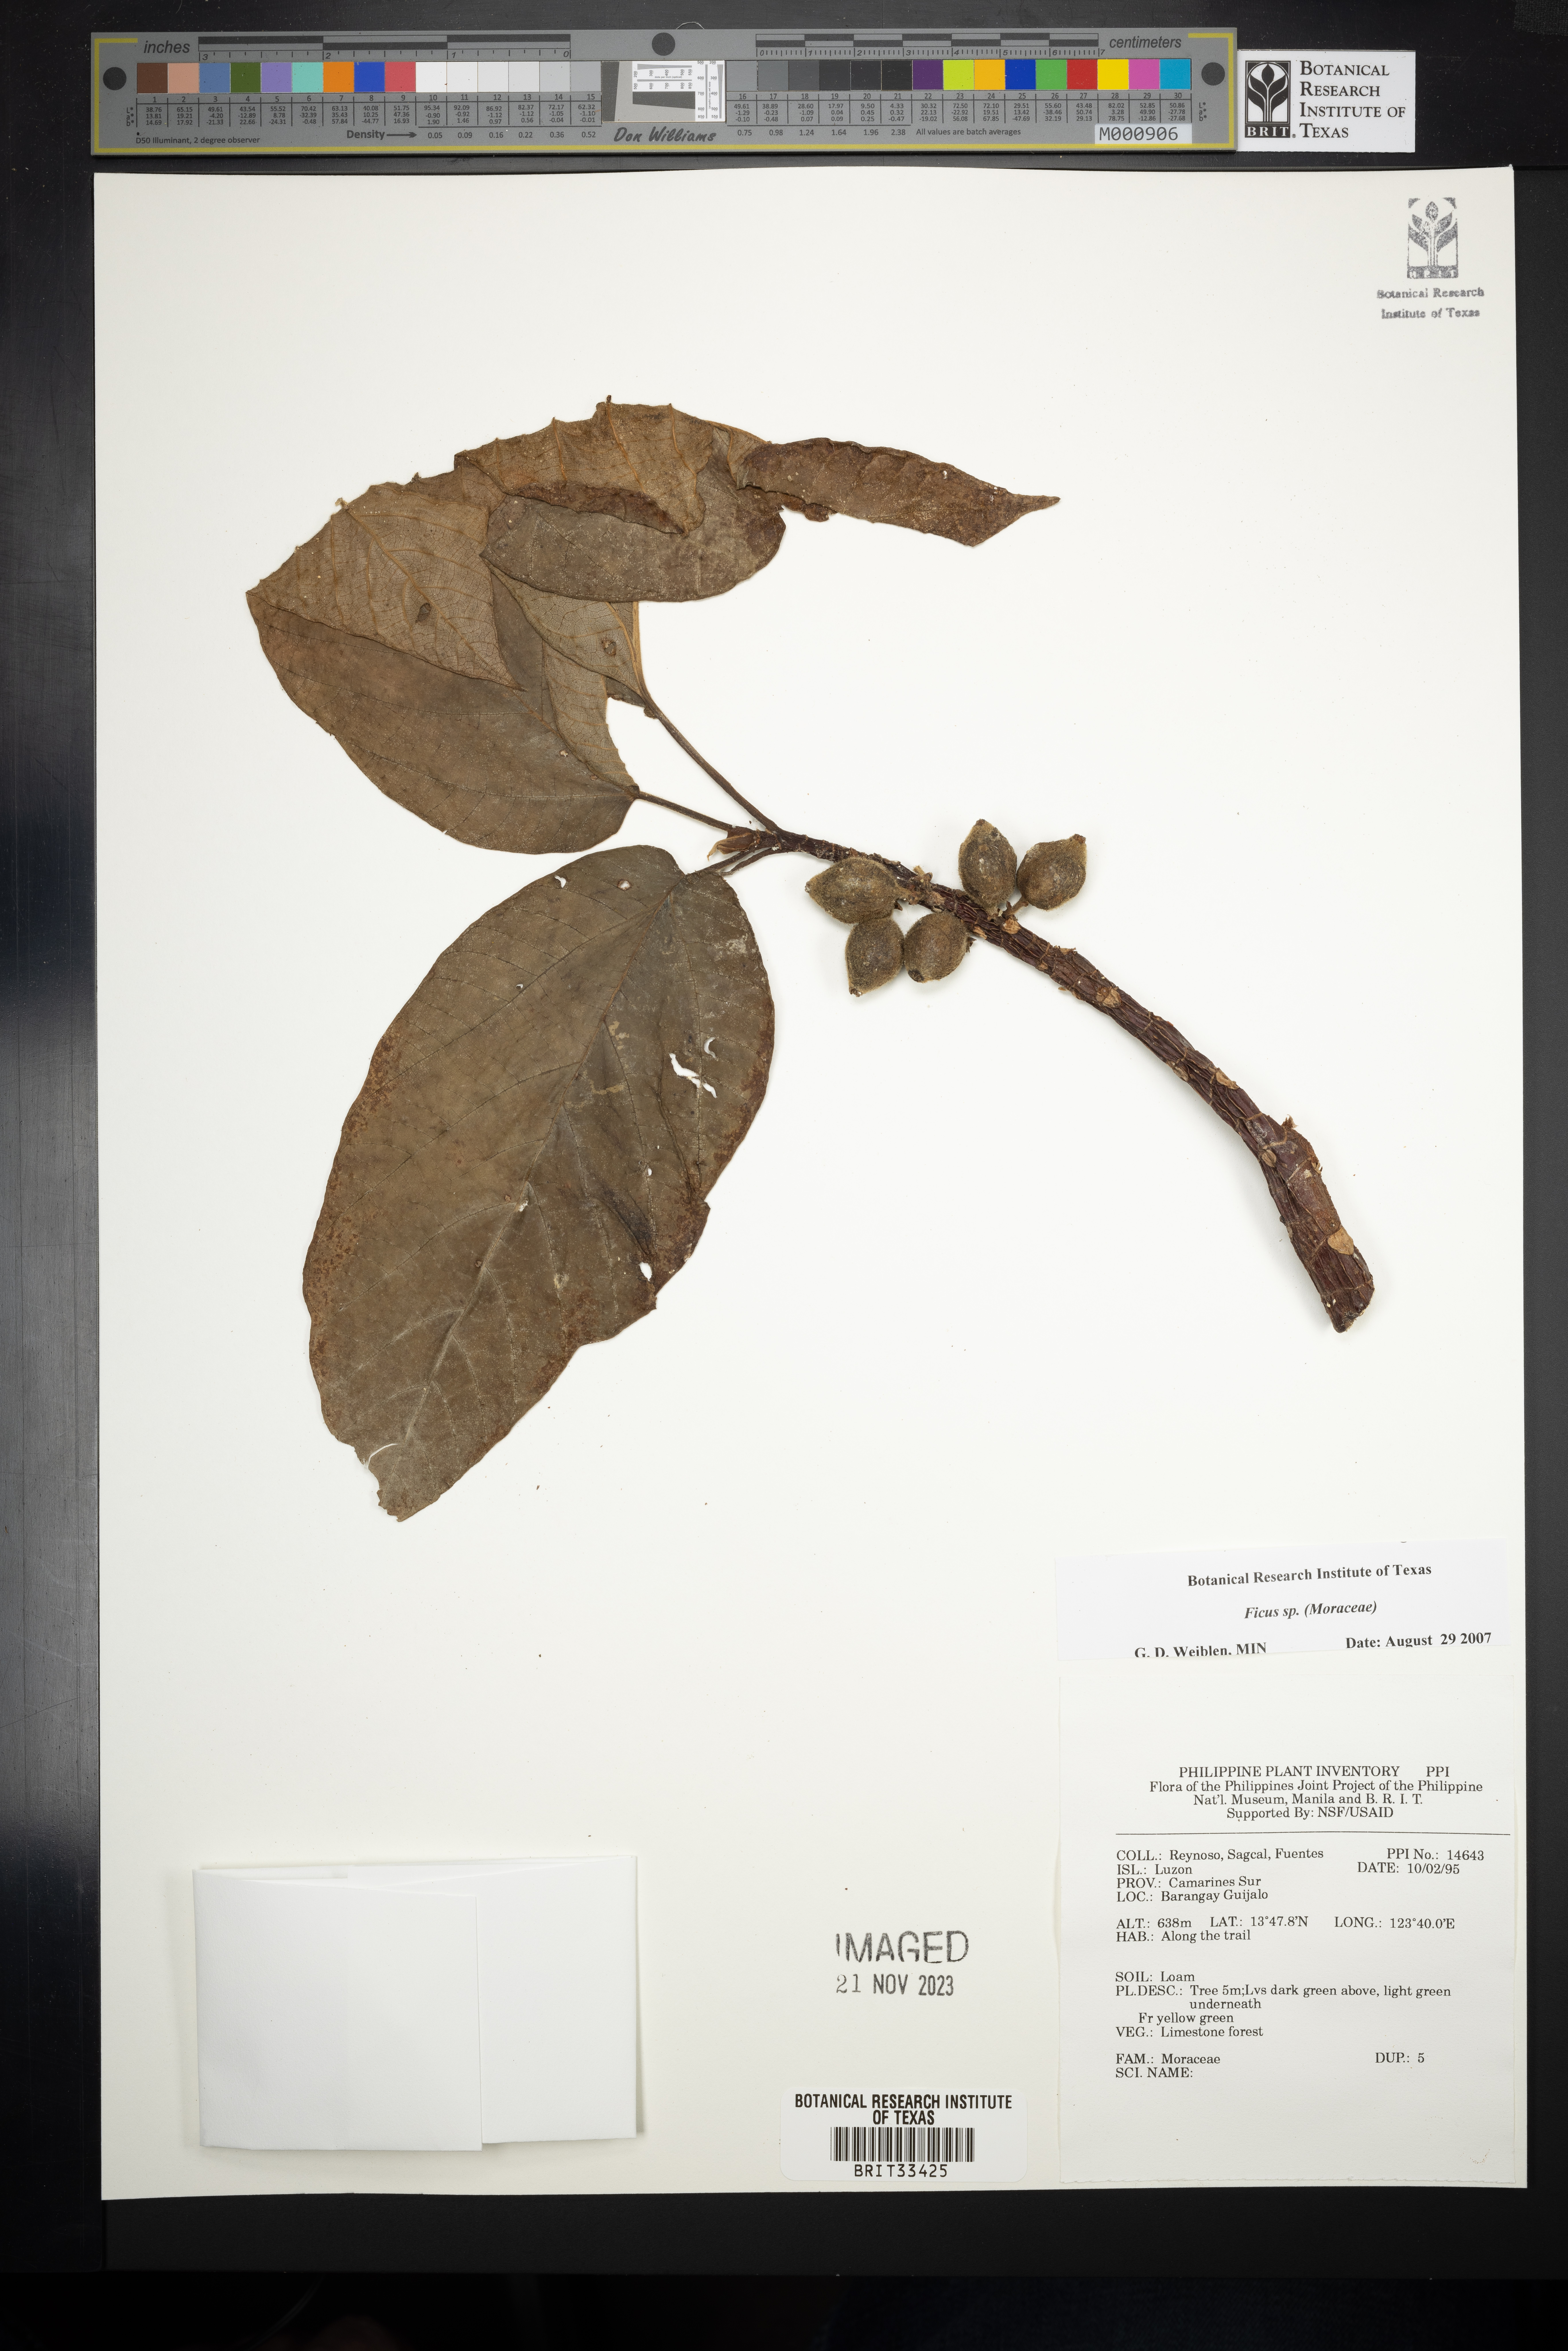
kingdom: Plantae
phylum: Tracheophyta
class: Magnoliopsida
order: Rosales
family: Moraceae
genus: Ficus
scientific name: Ficus
